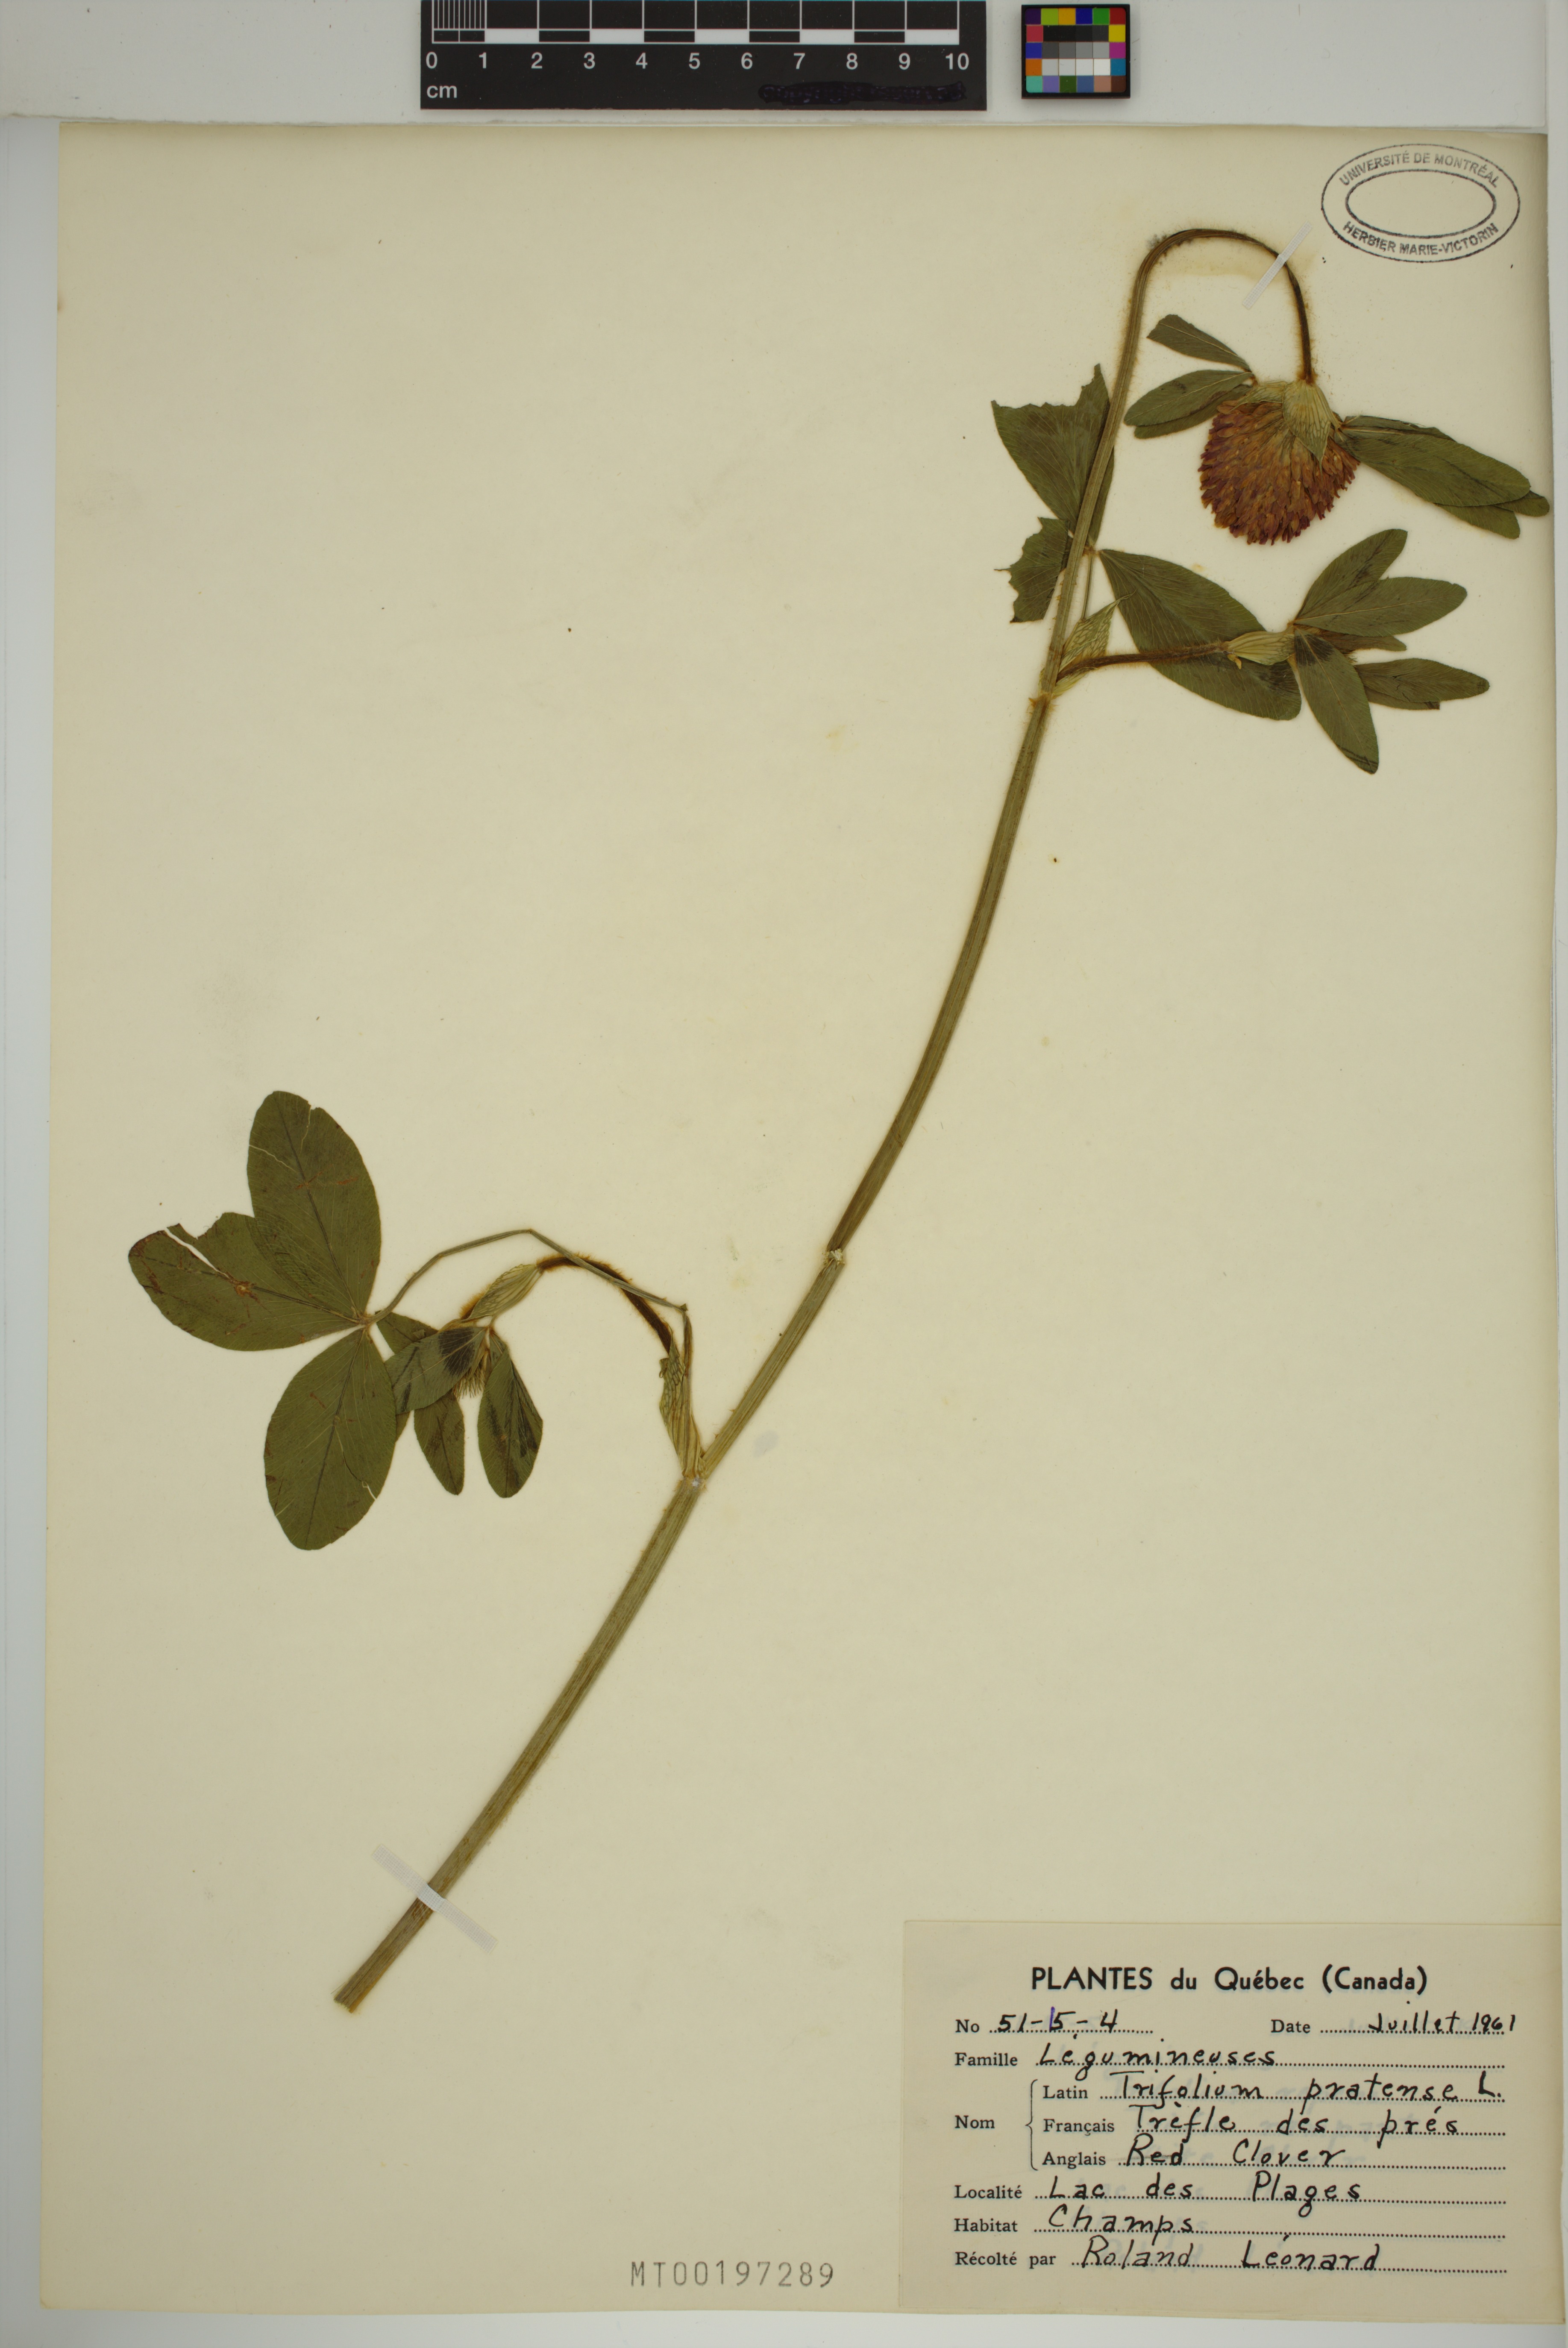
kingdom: Plantae
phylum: Tracheophyta
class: Magnoliopsida
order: Fabales
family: Fabaceae
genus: Trifolium
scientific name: Trifolium pratense
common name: Red clover
